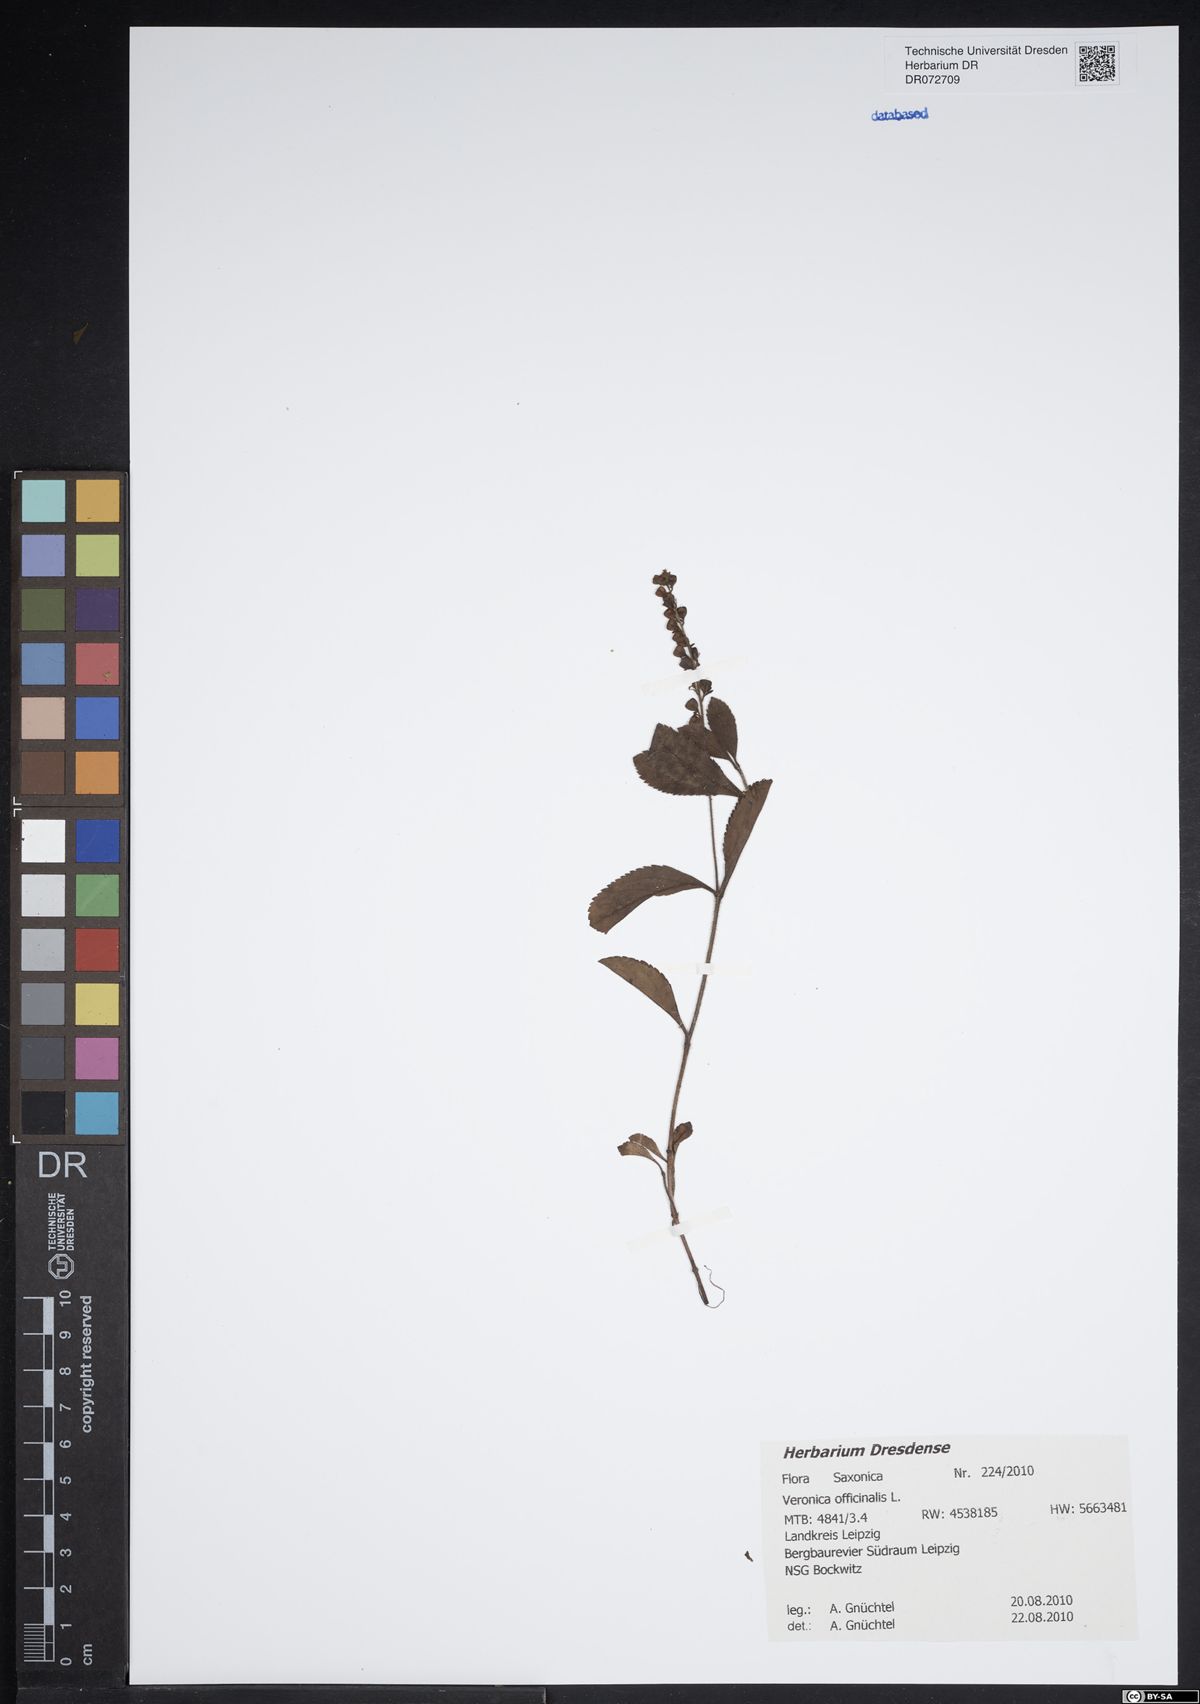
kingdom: Plantae
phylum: Tracheophyta
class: Magnoliopsida
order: Lamiales
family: Plantaginaceae
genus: Veronica
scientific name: Veronica officinalis
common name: Common speedwell
